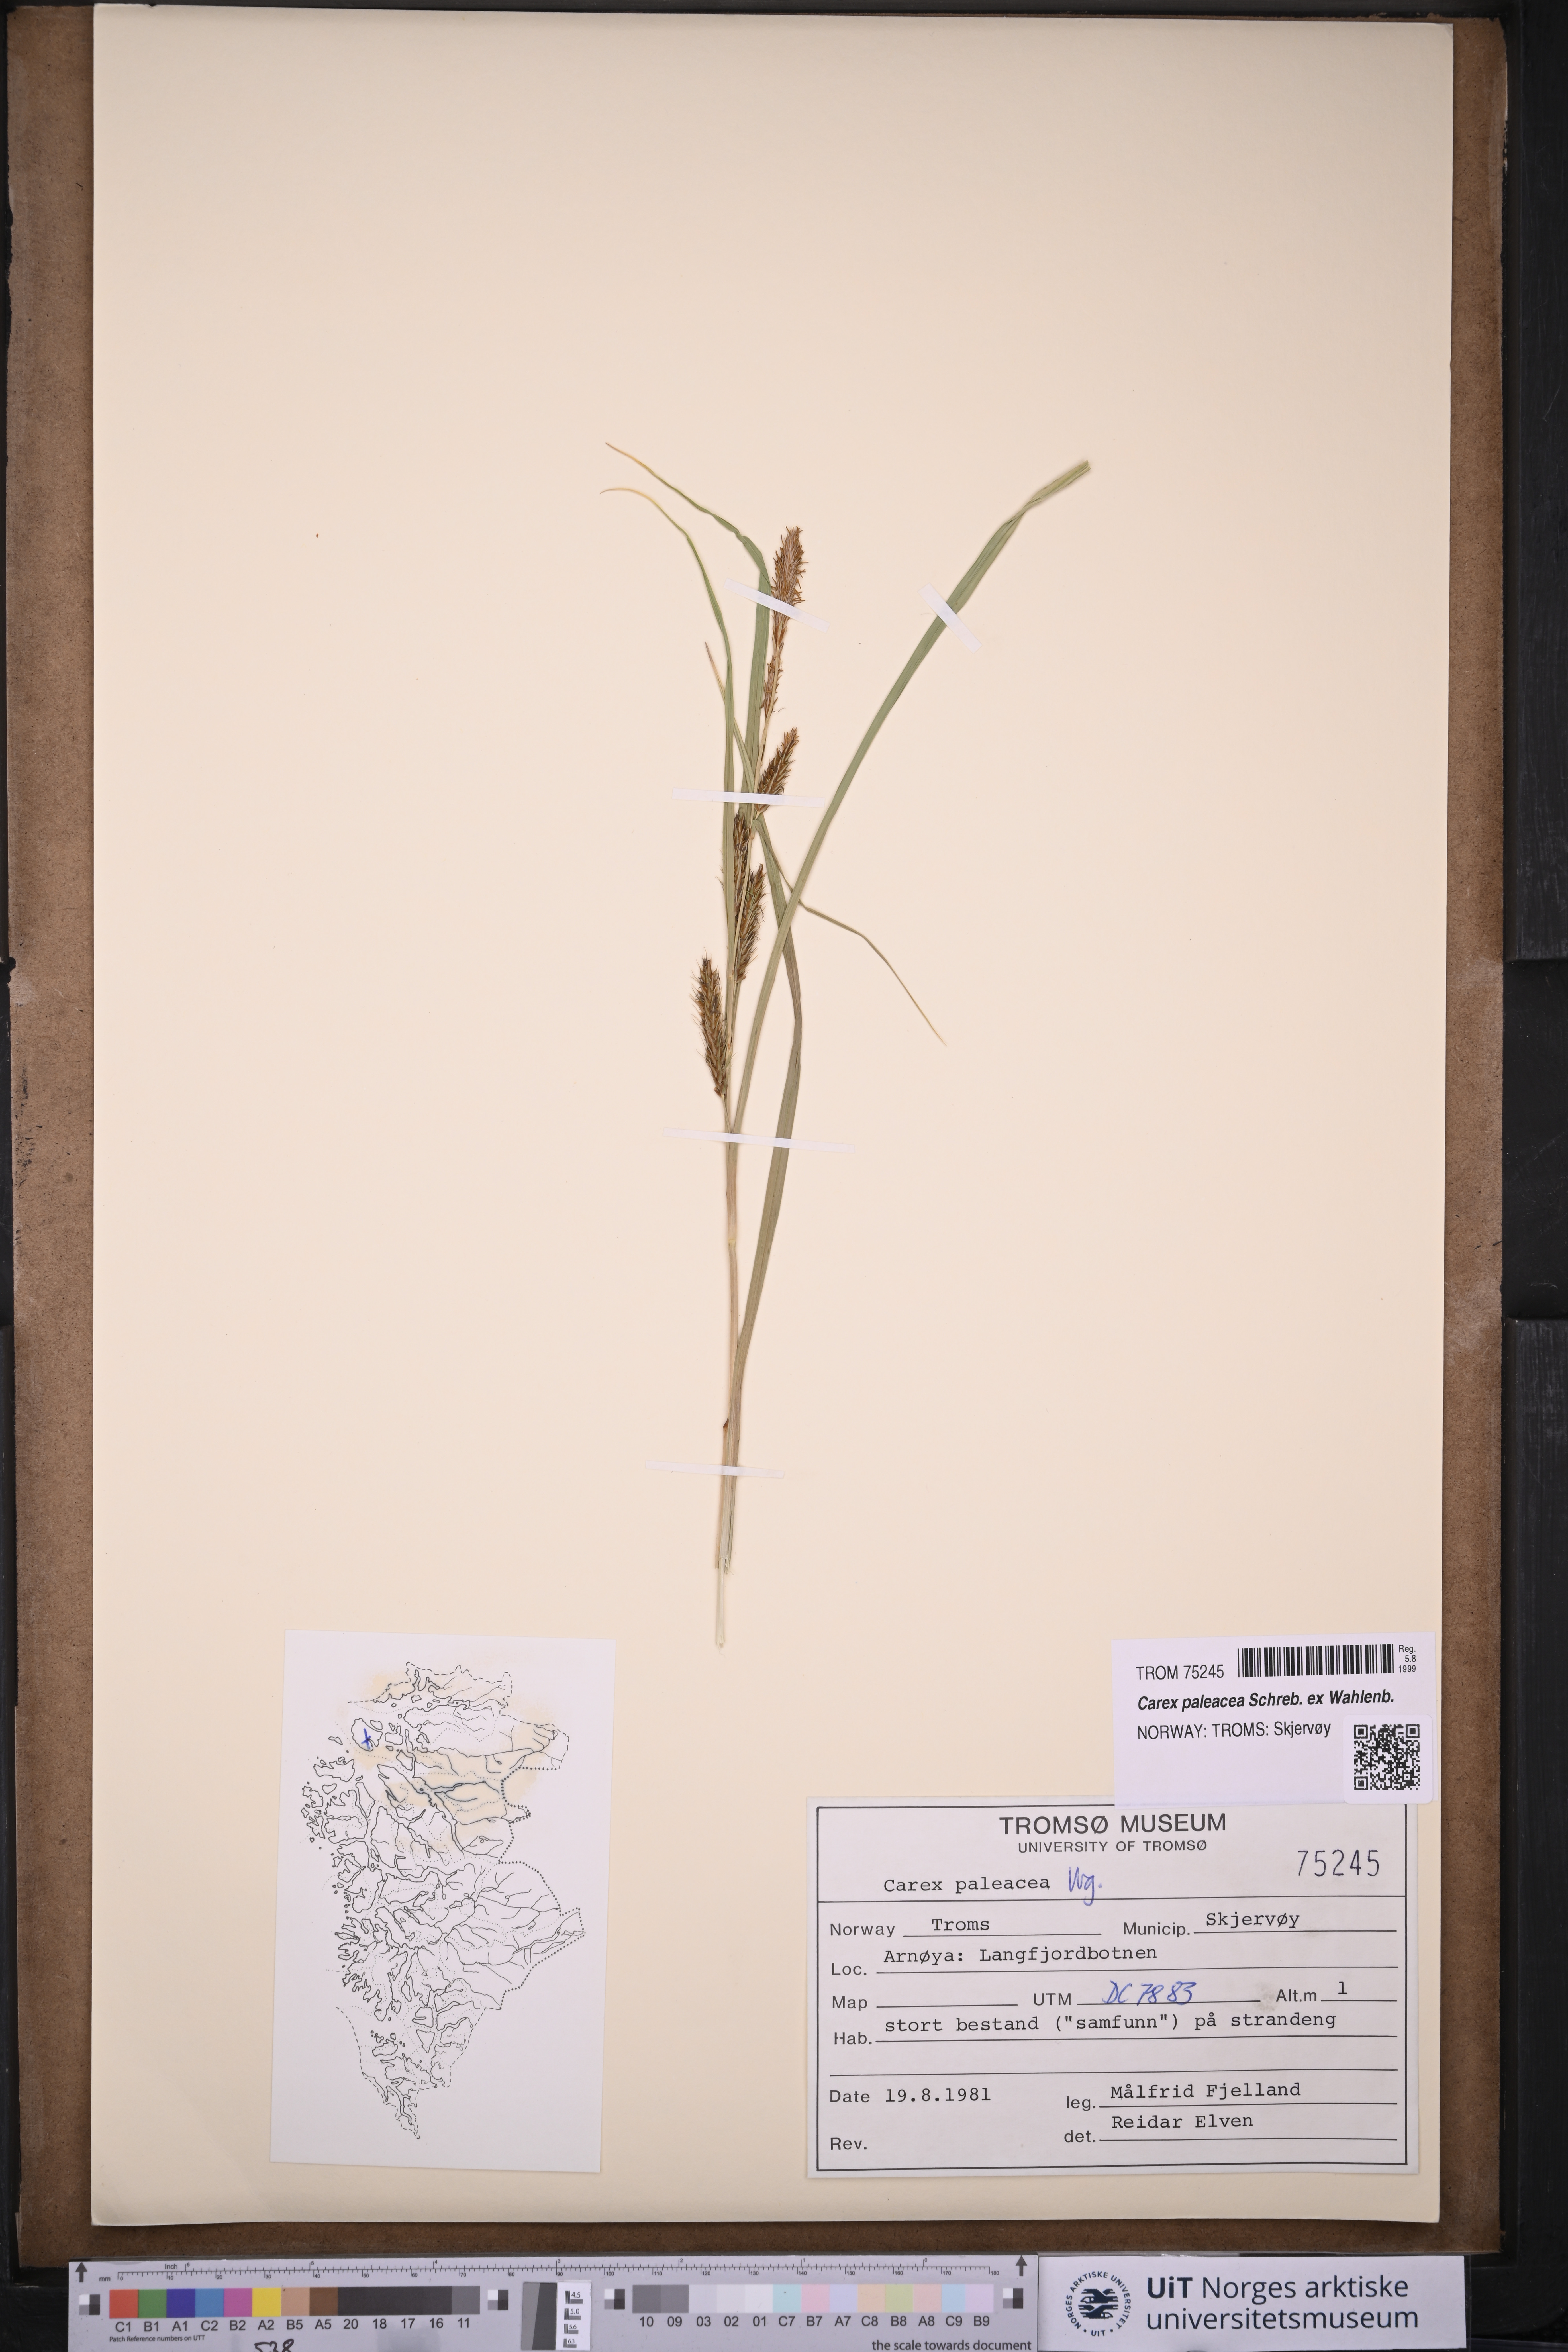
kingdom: Plantae
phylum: Tracheophyta
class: Liliopsida
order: Poales
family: Cyperaceae
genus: Carex
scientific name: Carex paleacea
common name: Chaffy sedge
